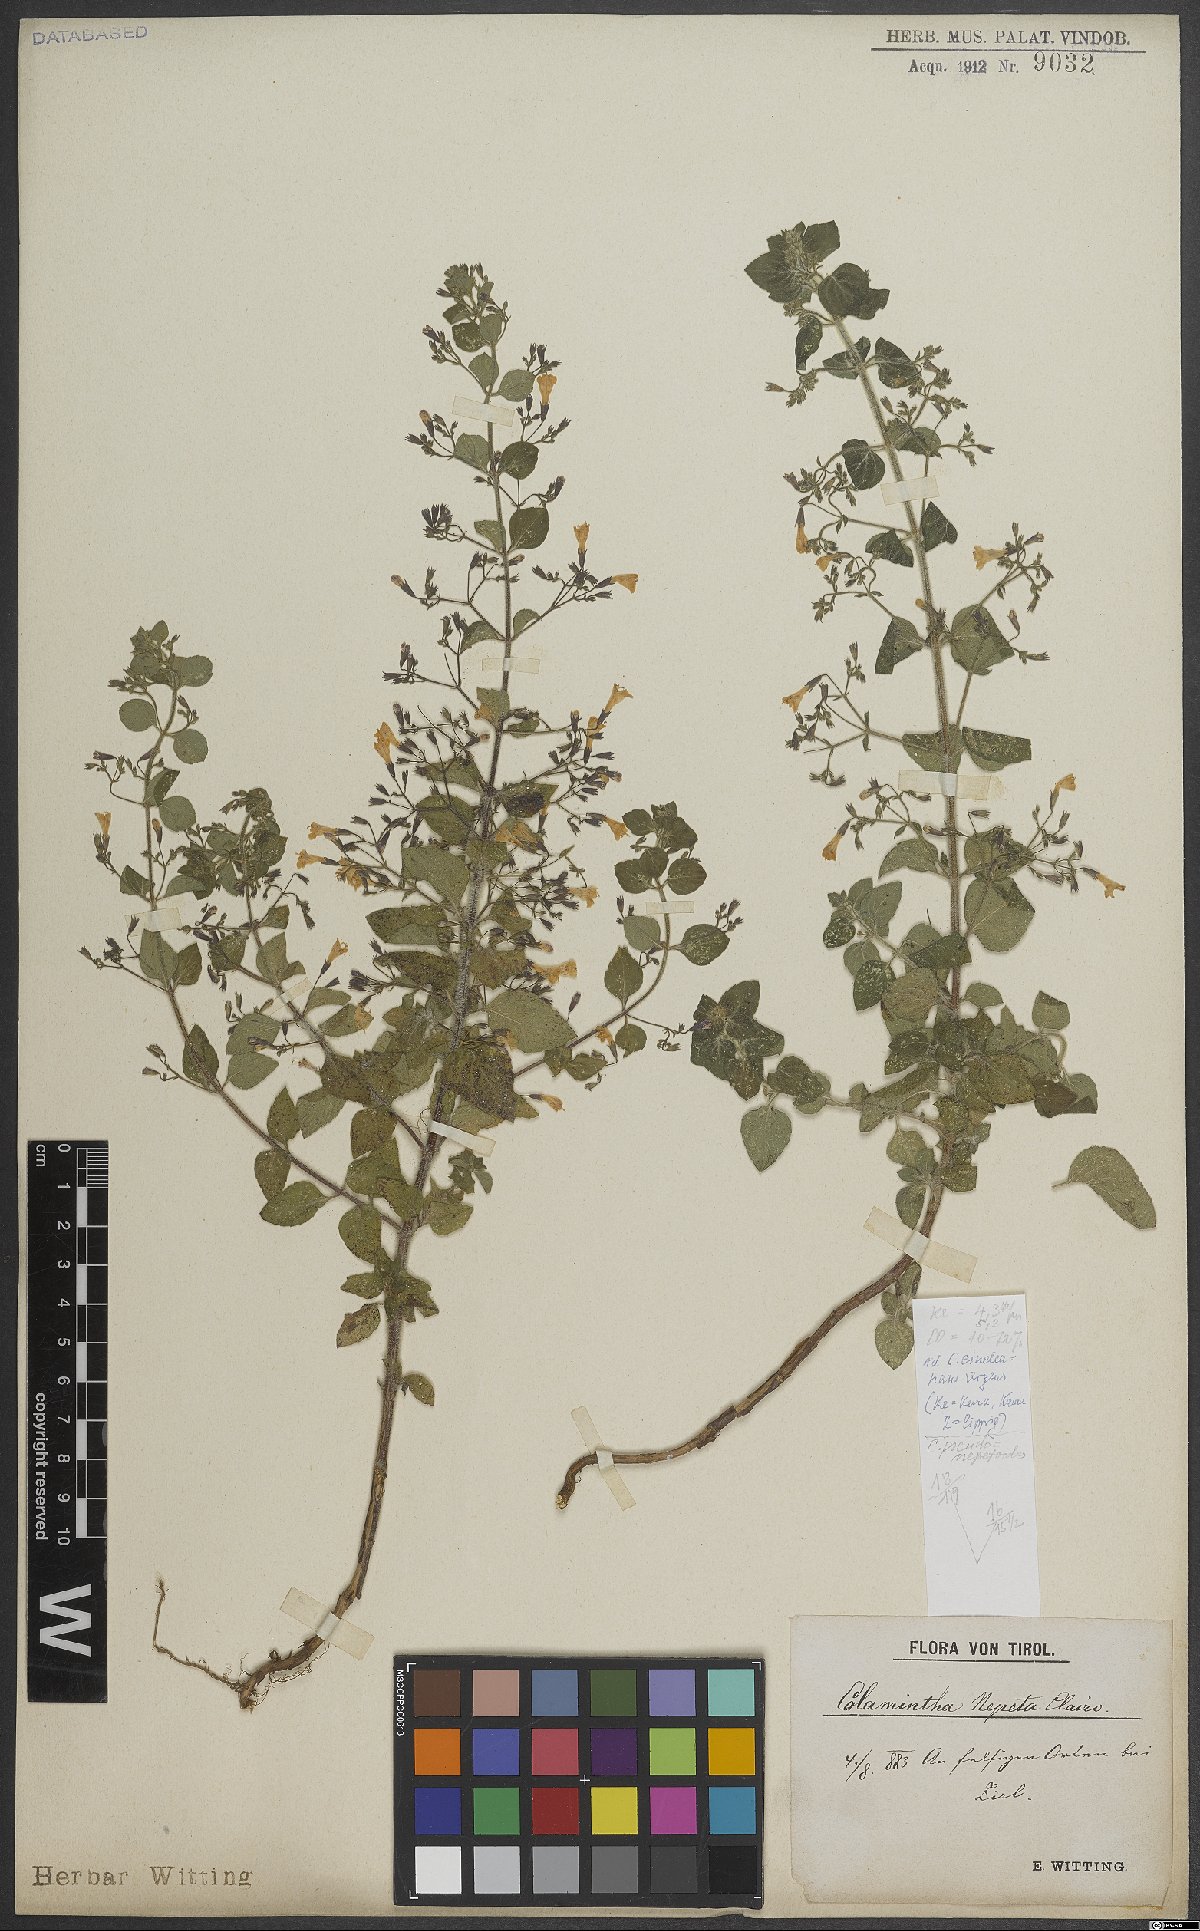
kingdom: Plantae
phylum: Tracheophyta
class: Magnoliopsida
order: Lamiales
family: Lamiaceae
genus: Clinopodium
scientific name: Clinopodium nepeta
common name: Lesser calamint
